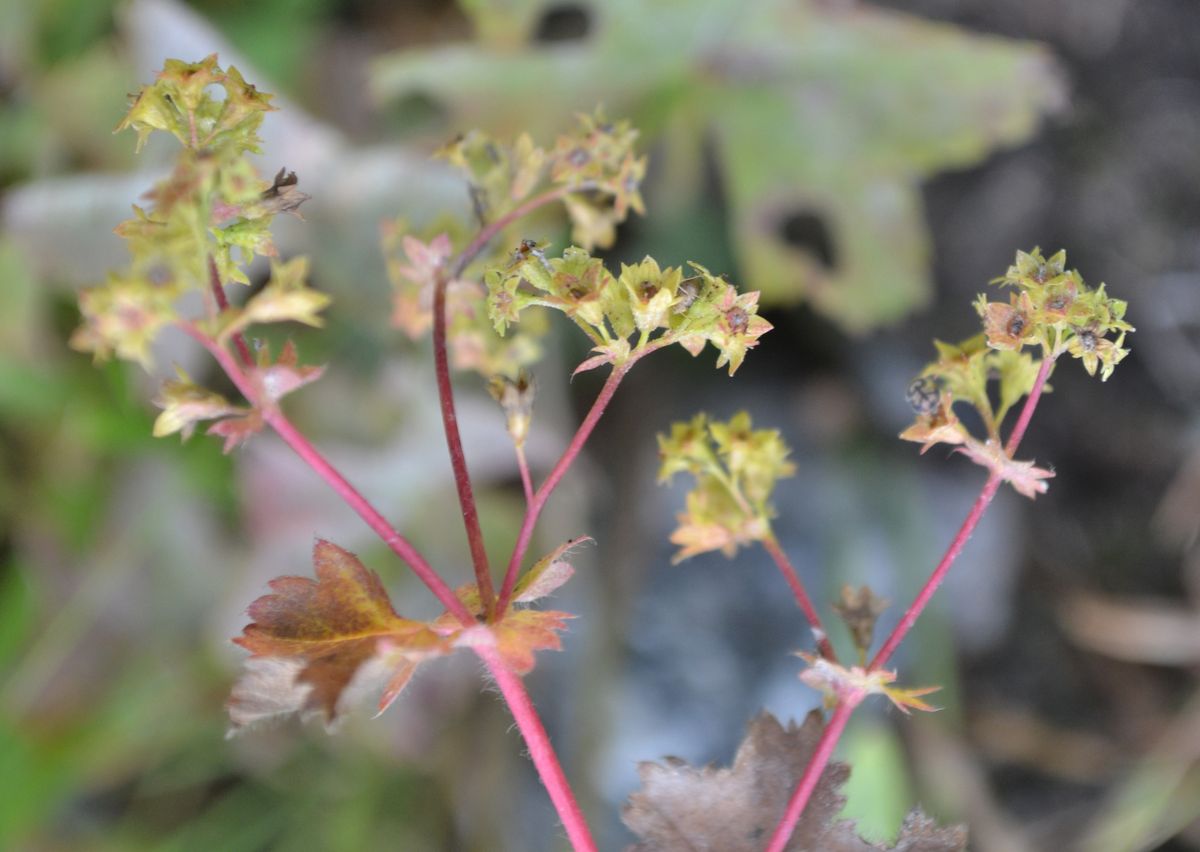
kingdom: Plantae
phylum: Tracheophyta
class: Magnoliopsida
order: Rosales
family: Rosaceae
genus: Alchemilla
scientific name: Alchemilla
